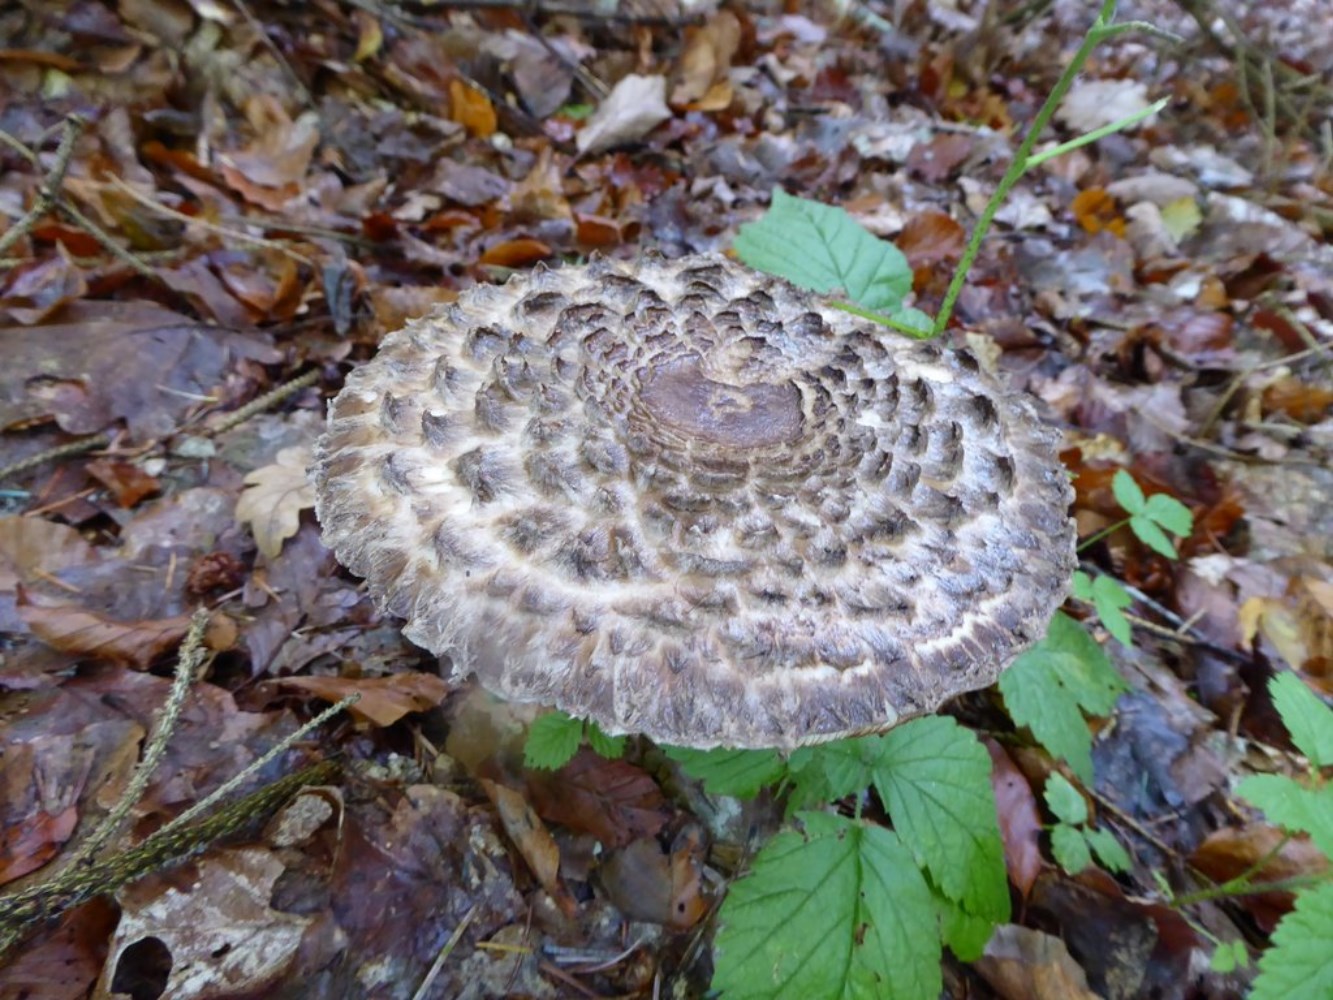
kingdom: Fungi
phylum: Basidiomycota
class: Agaricomycetes
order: Agaricales
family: Agaricaceae
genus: Chlorophyllum
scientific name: Chlorophyllum rhacodes
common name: ægte rabarberhat
